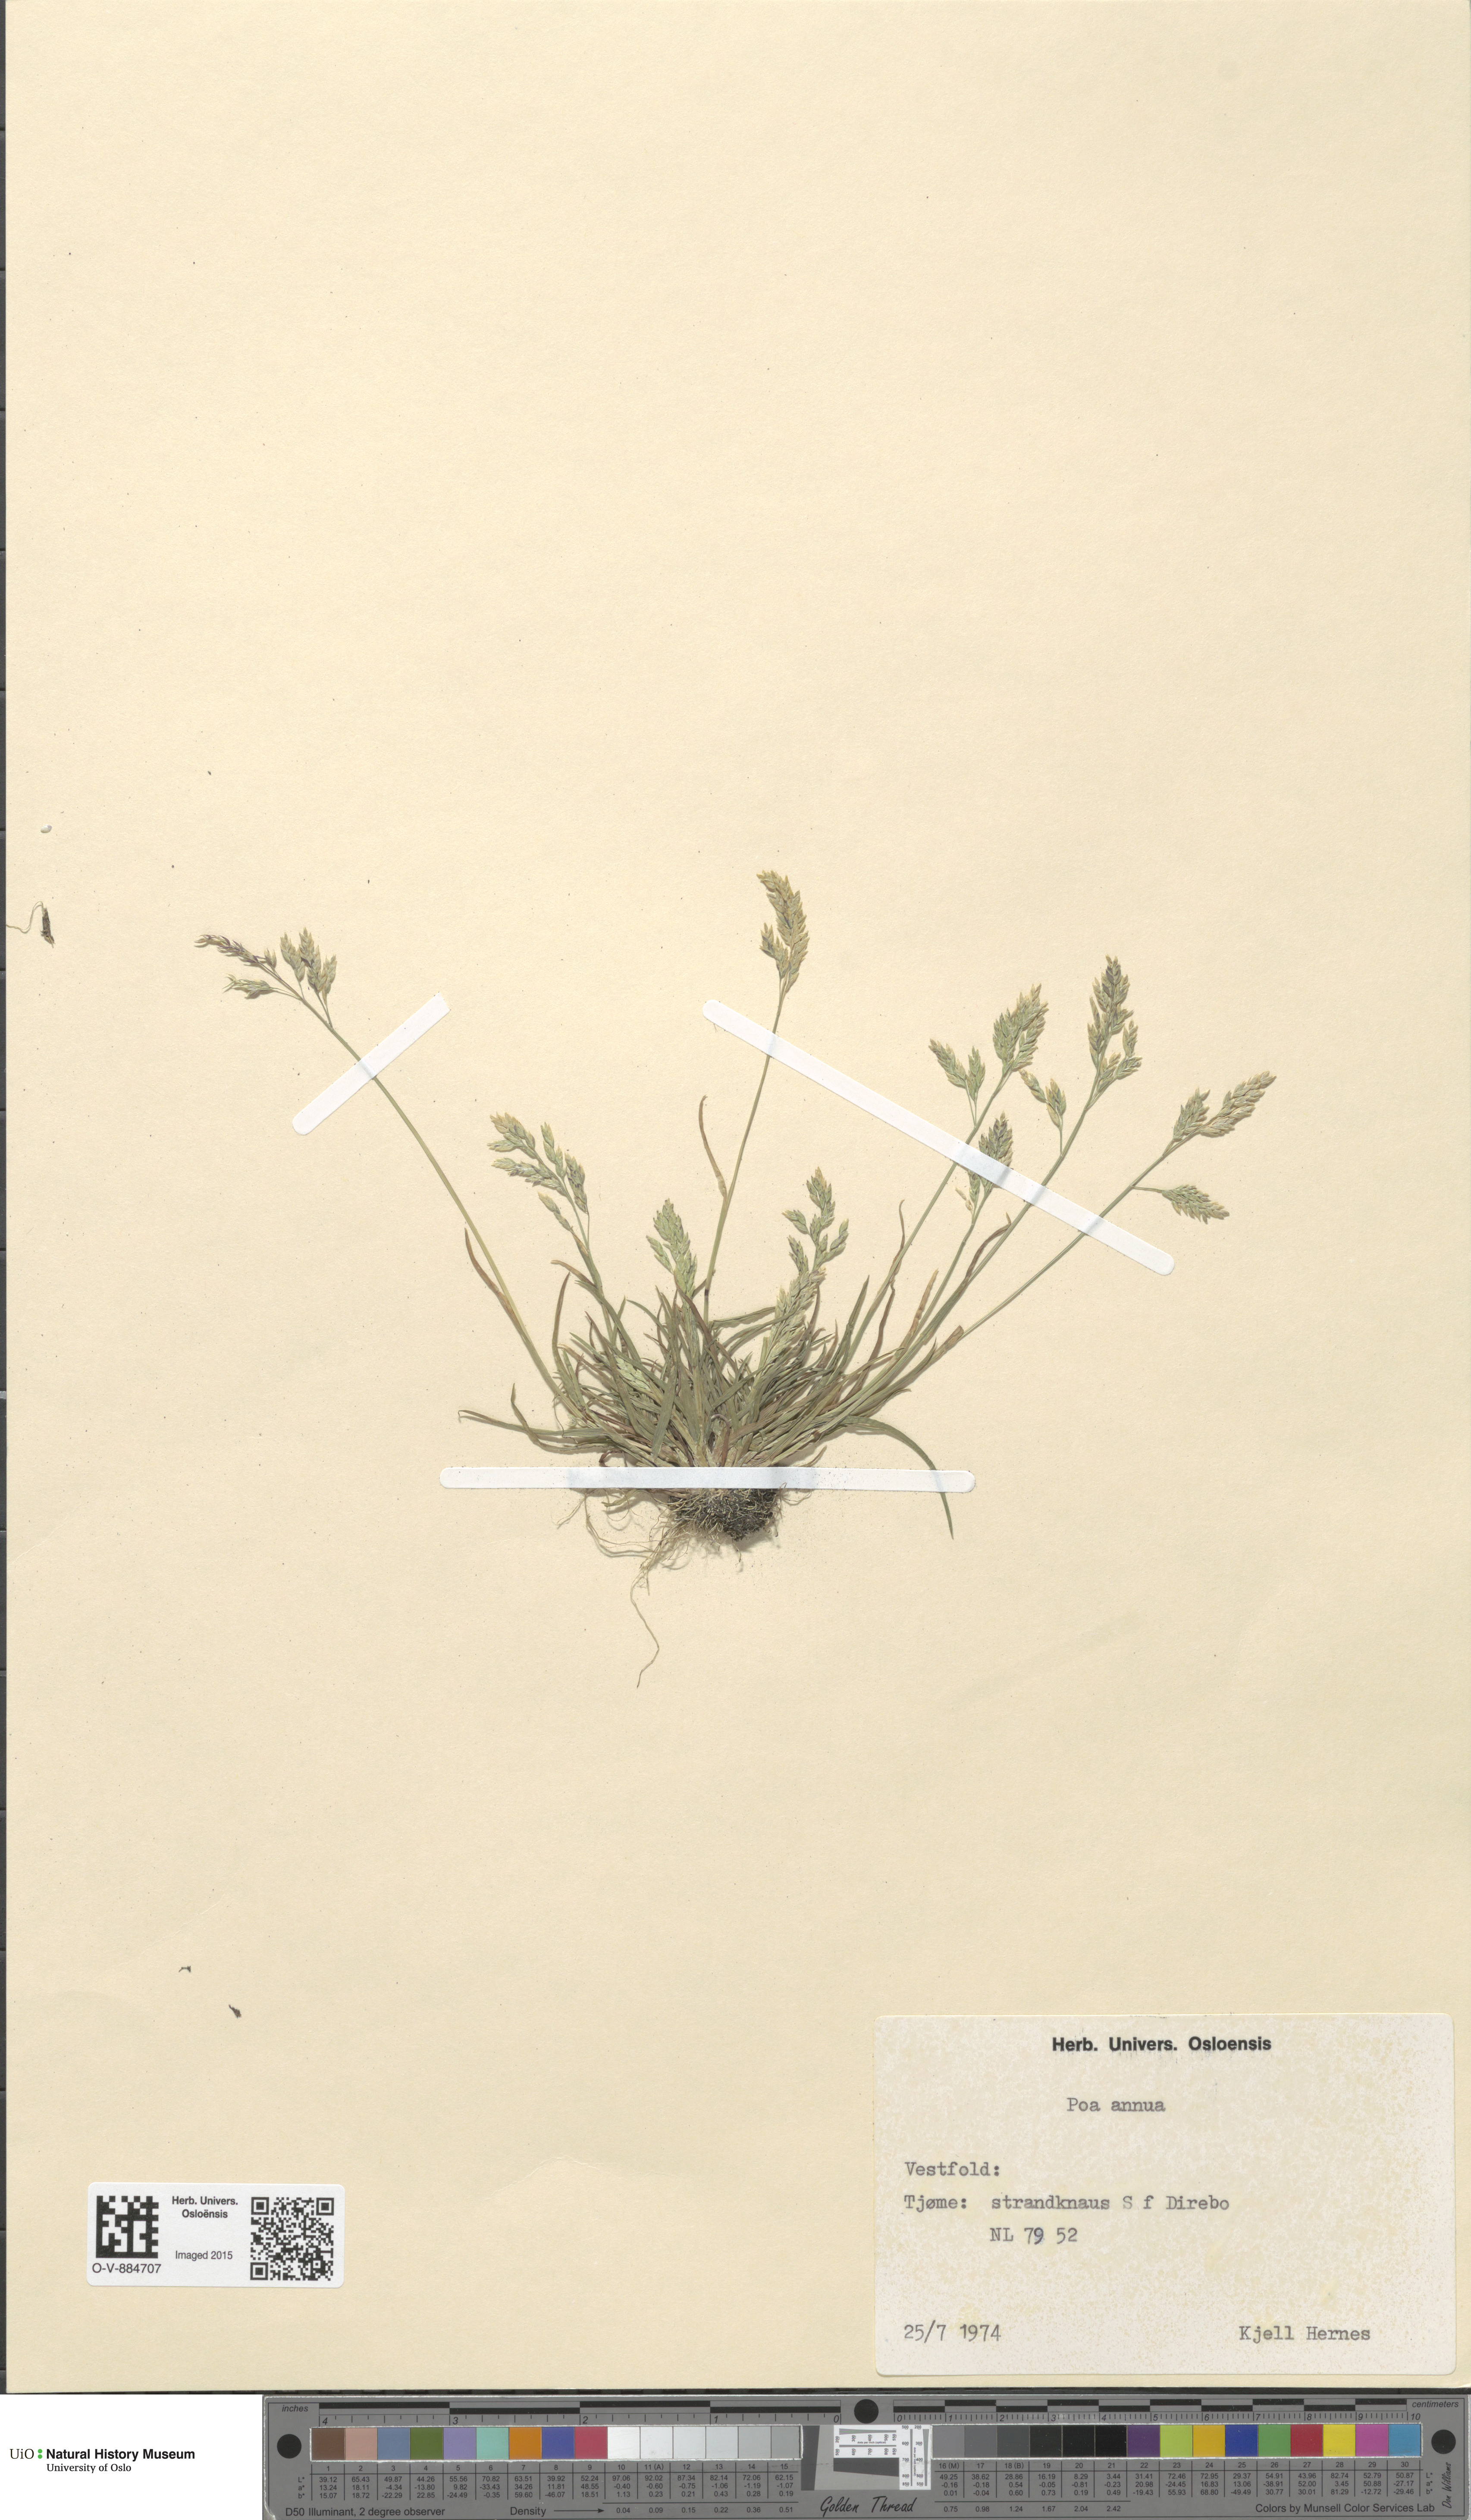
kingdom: Plantae
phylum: Tracheophyta
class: Liliopsida
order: Poales
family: Poaceae
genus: Poa
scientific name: Poa annua
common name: Annual bluegrass
